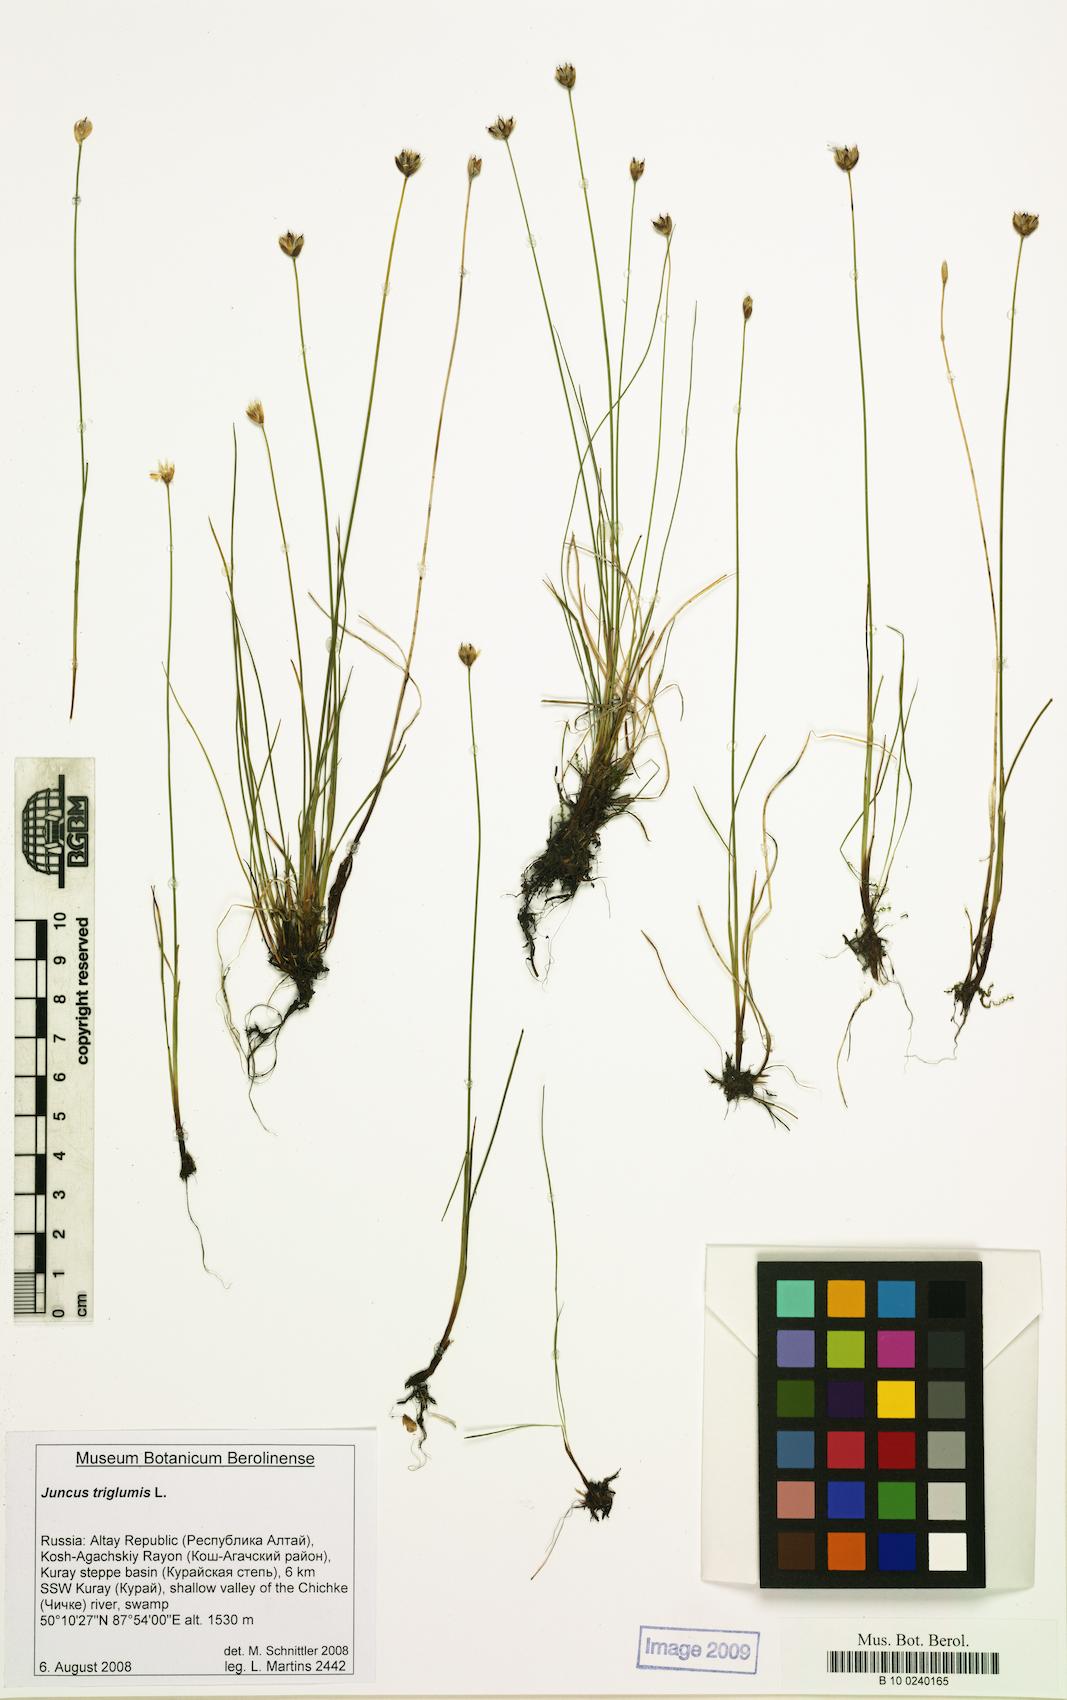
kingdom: Plantae
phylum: Tracheophyta
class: Liliopsida
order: Poales
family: Juncaceae
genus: Juncus
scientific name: Juncus triglumis
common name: Three-flowered rush
